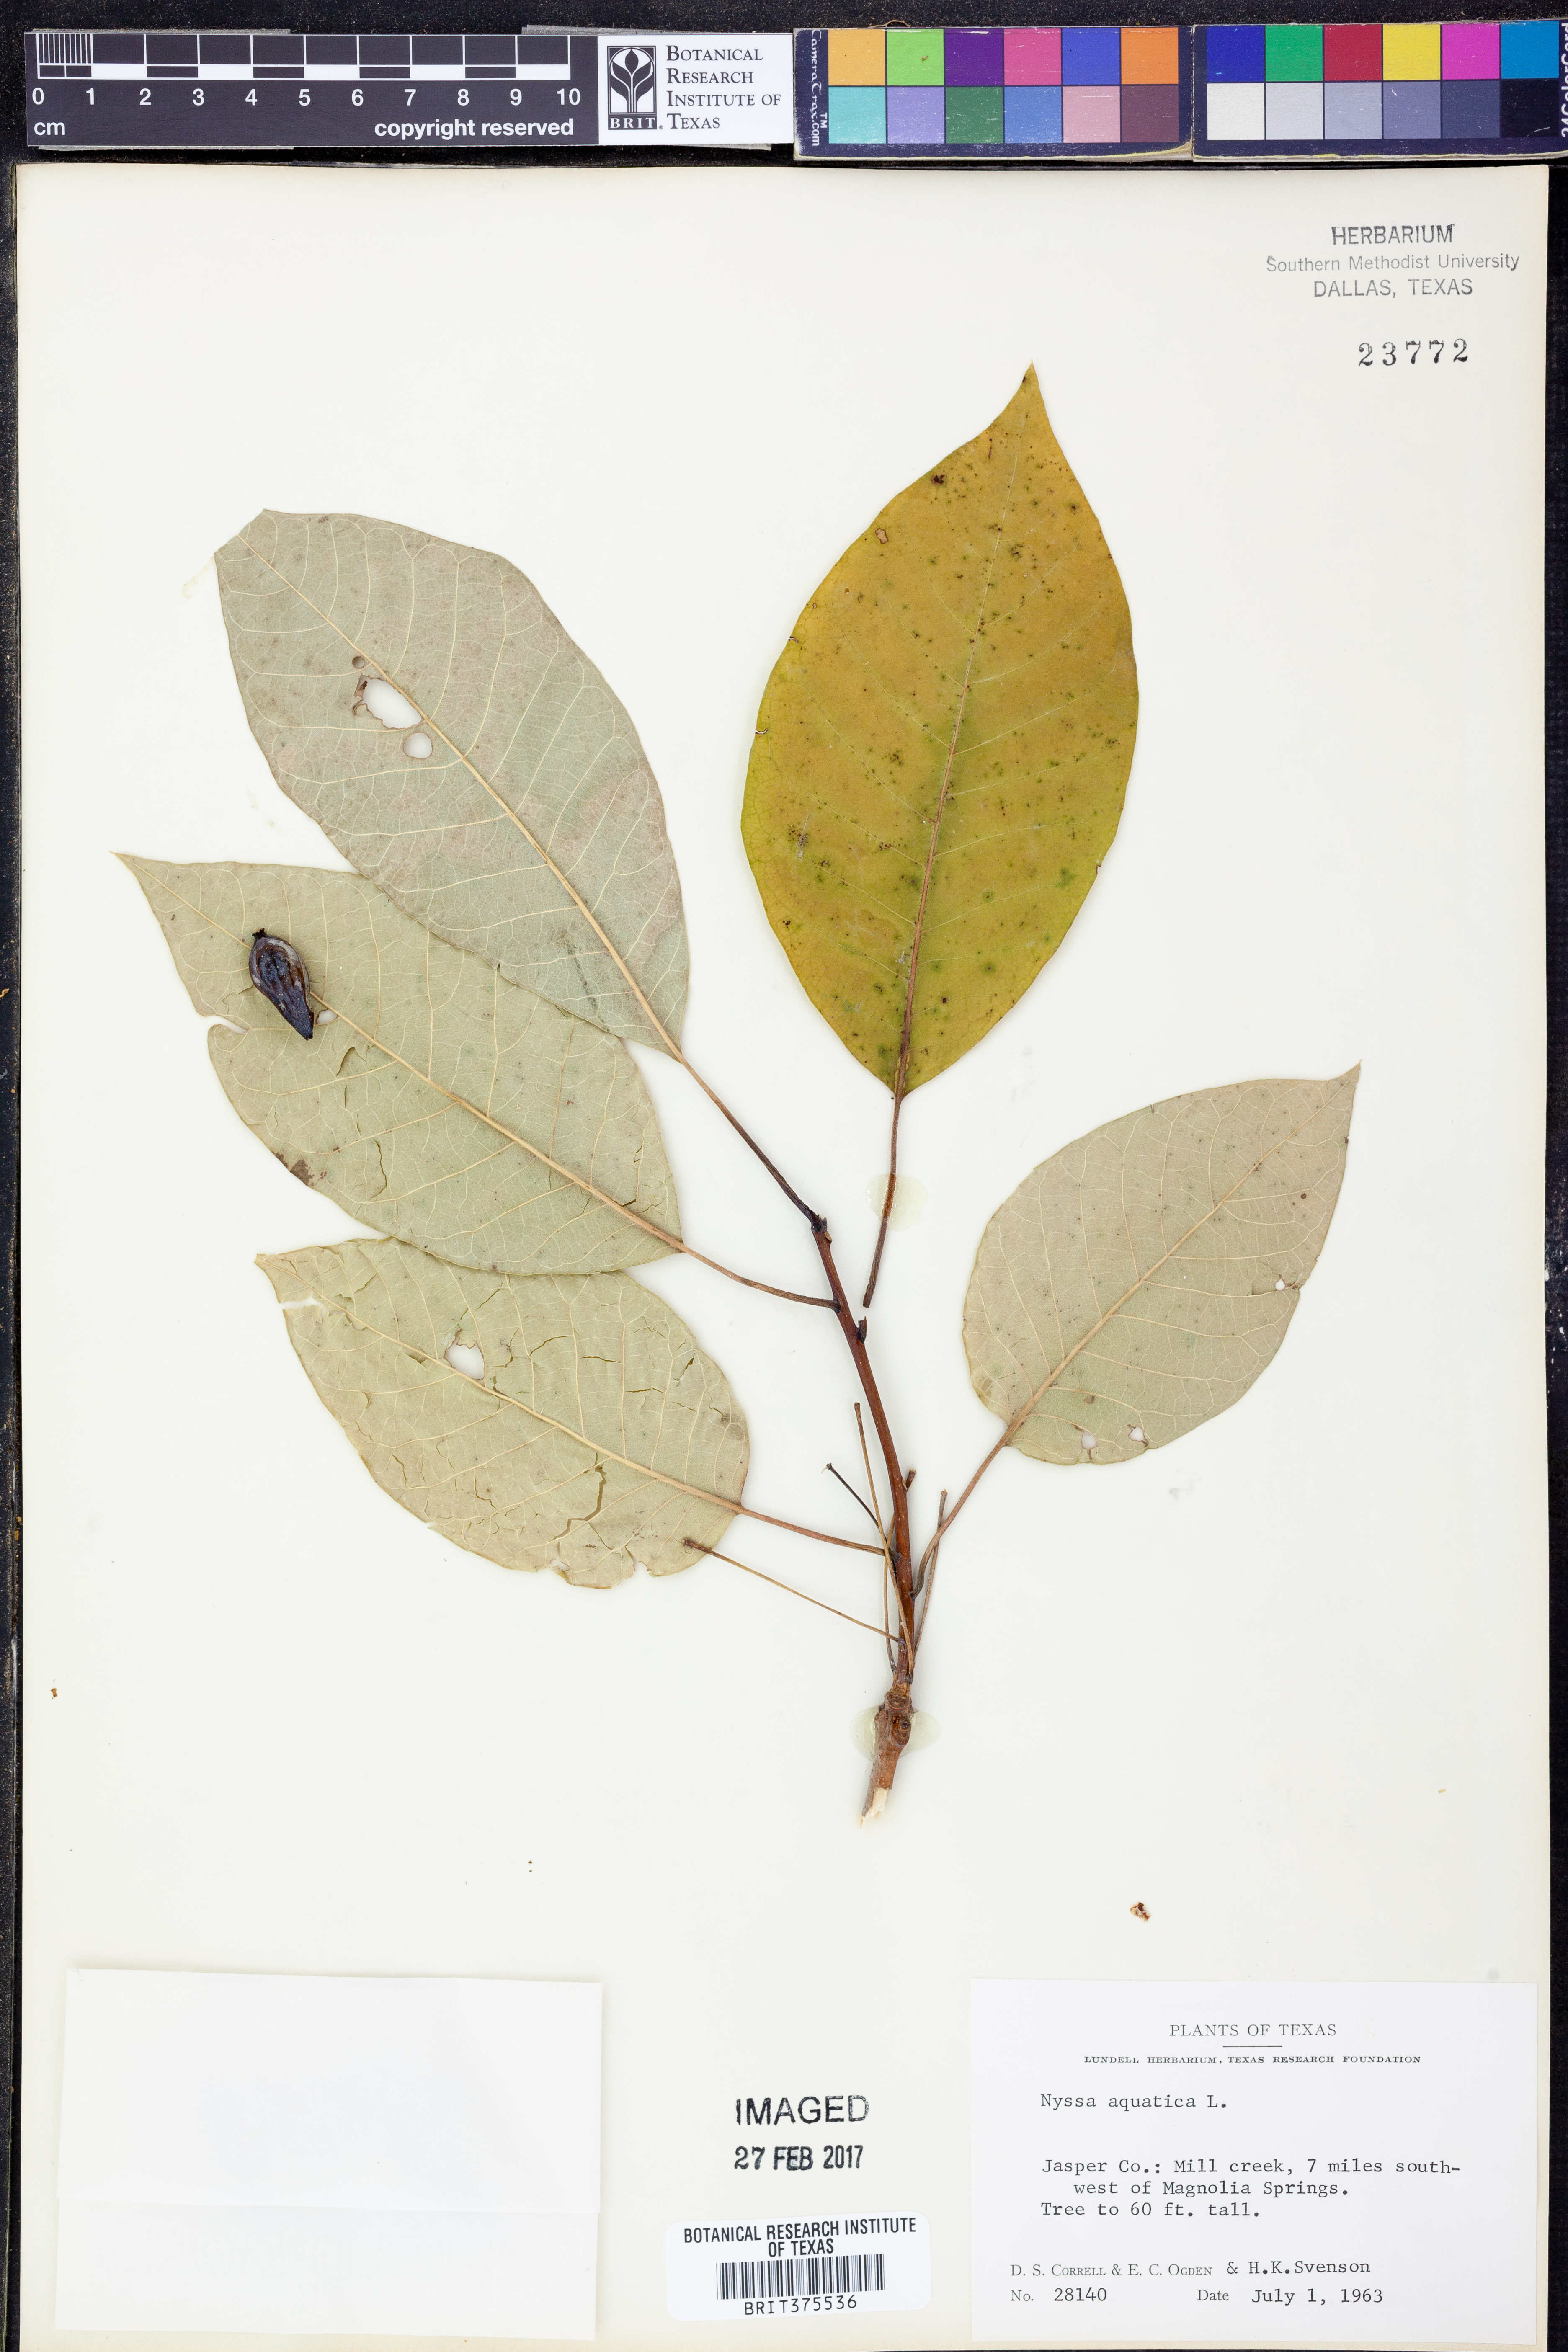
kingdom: Plantae
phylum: Tracheophyta
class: Magnoliopsida
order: Cornales
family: Nyssaceae
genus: Nyssa
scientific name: Nyssa aquatica
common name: Swamp tupelo
